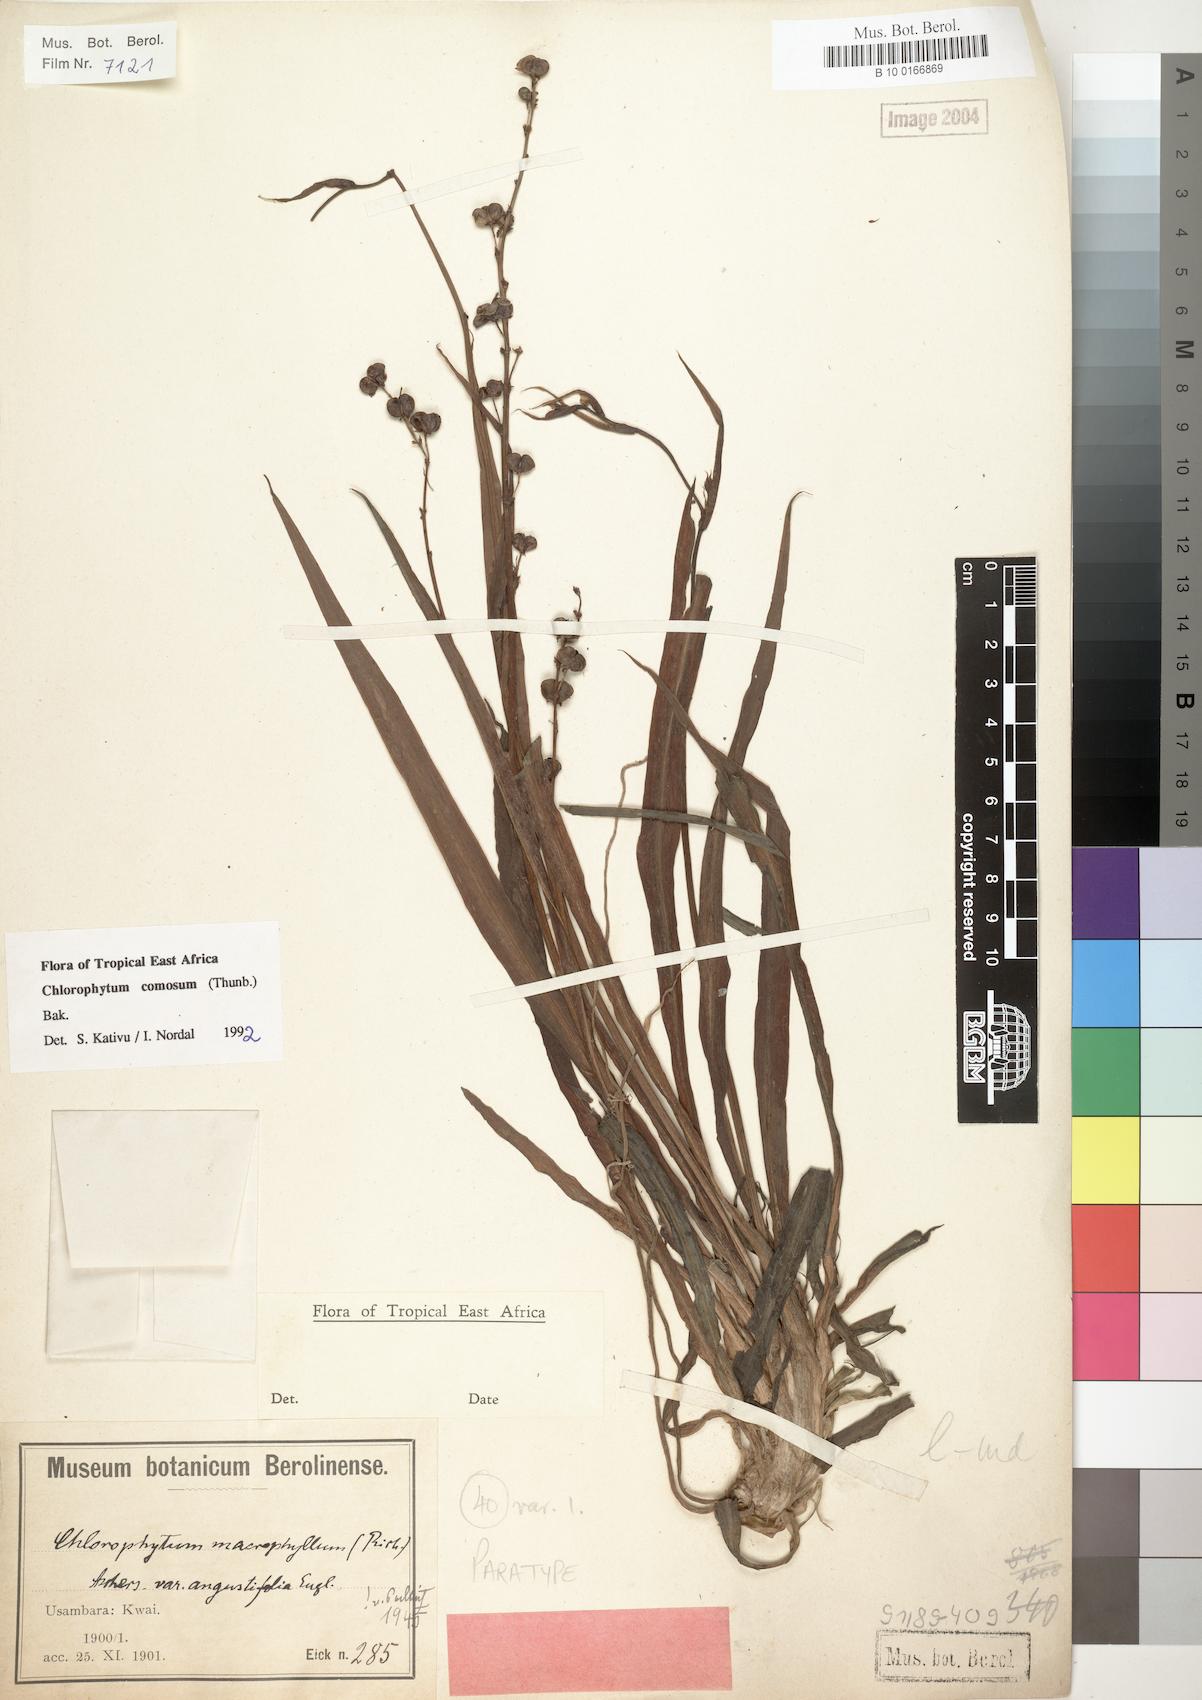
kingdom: Plantae
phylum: Tracheophyta
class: Liliopsida
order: Asparagales
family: Asparagaceae
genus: Chlorophytum
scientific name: Chlorophytum comosum
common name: Spider plant
